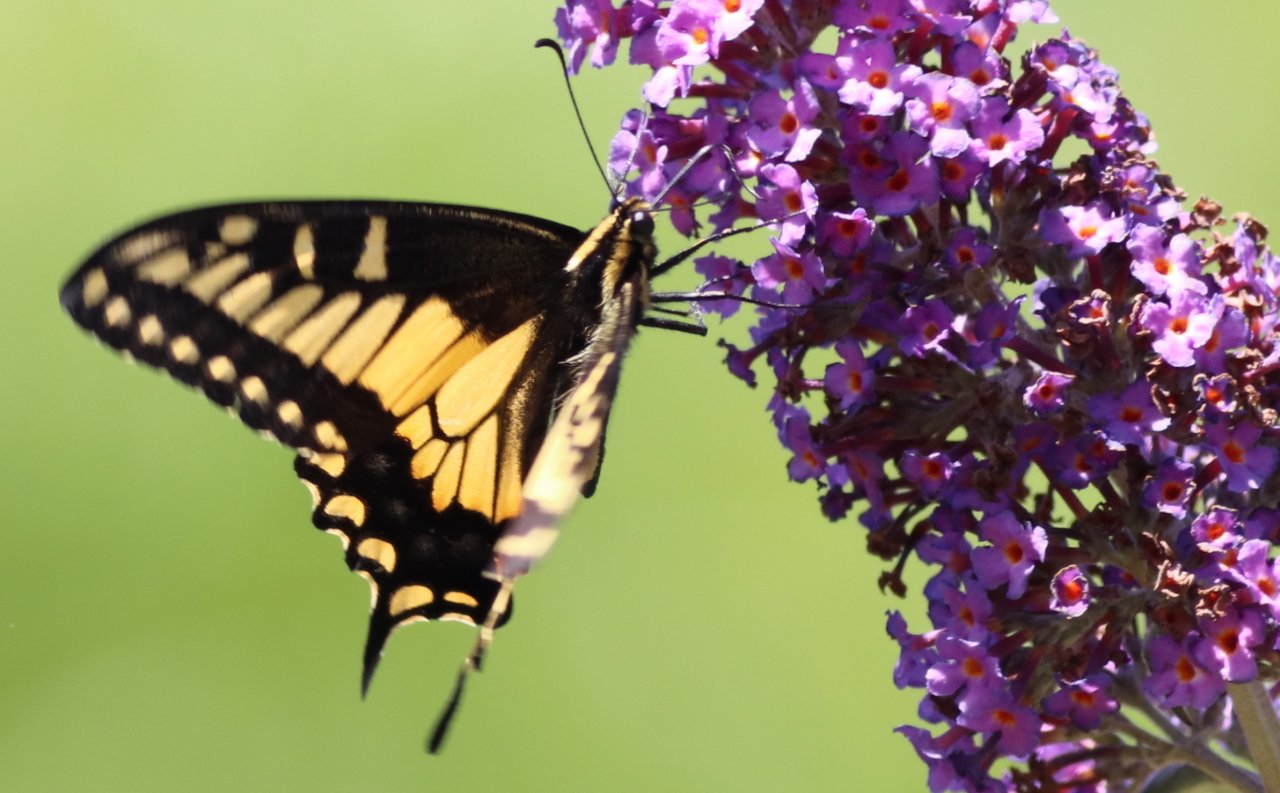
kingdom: Animalia
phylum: Arthropoda
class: Insecta
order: Lepidoptera
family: Papilionidae
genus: Papilio
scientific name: Papilio zelicaon
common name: Anise Swallowtail
